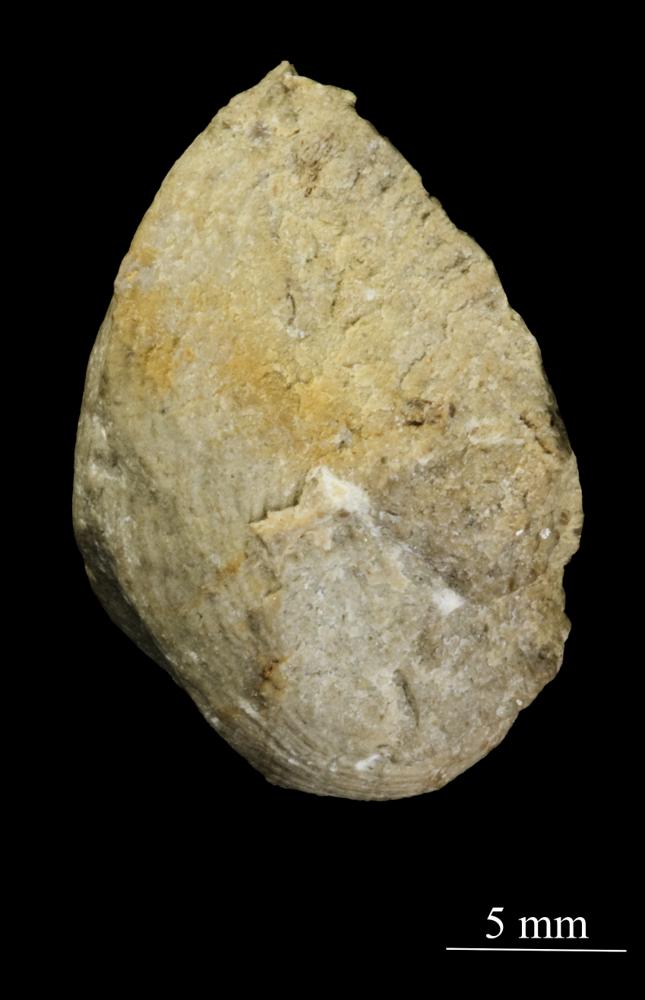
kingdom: Animalia
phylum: Mollusca
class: Gastropoda
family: Bucaniidae
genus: Bucania
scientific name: Bucania Bellerophon radiata
